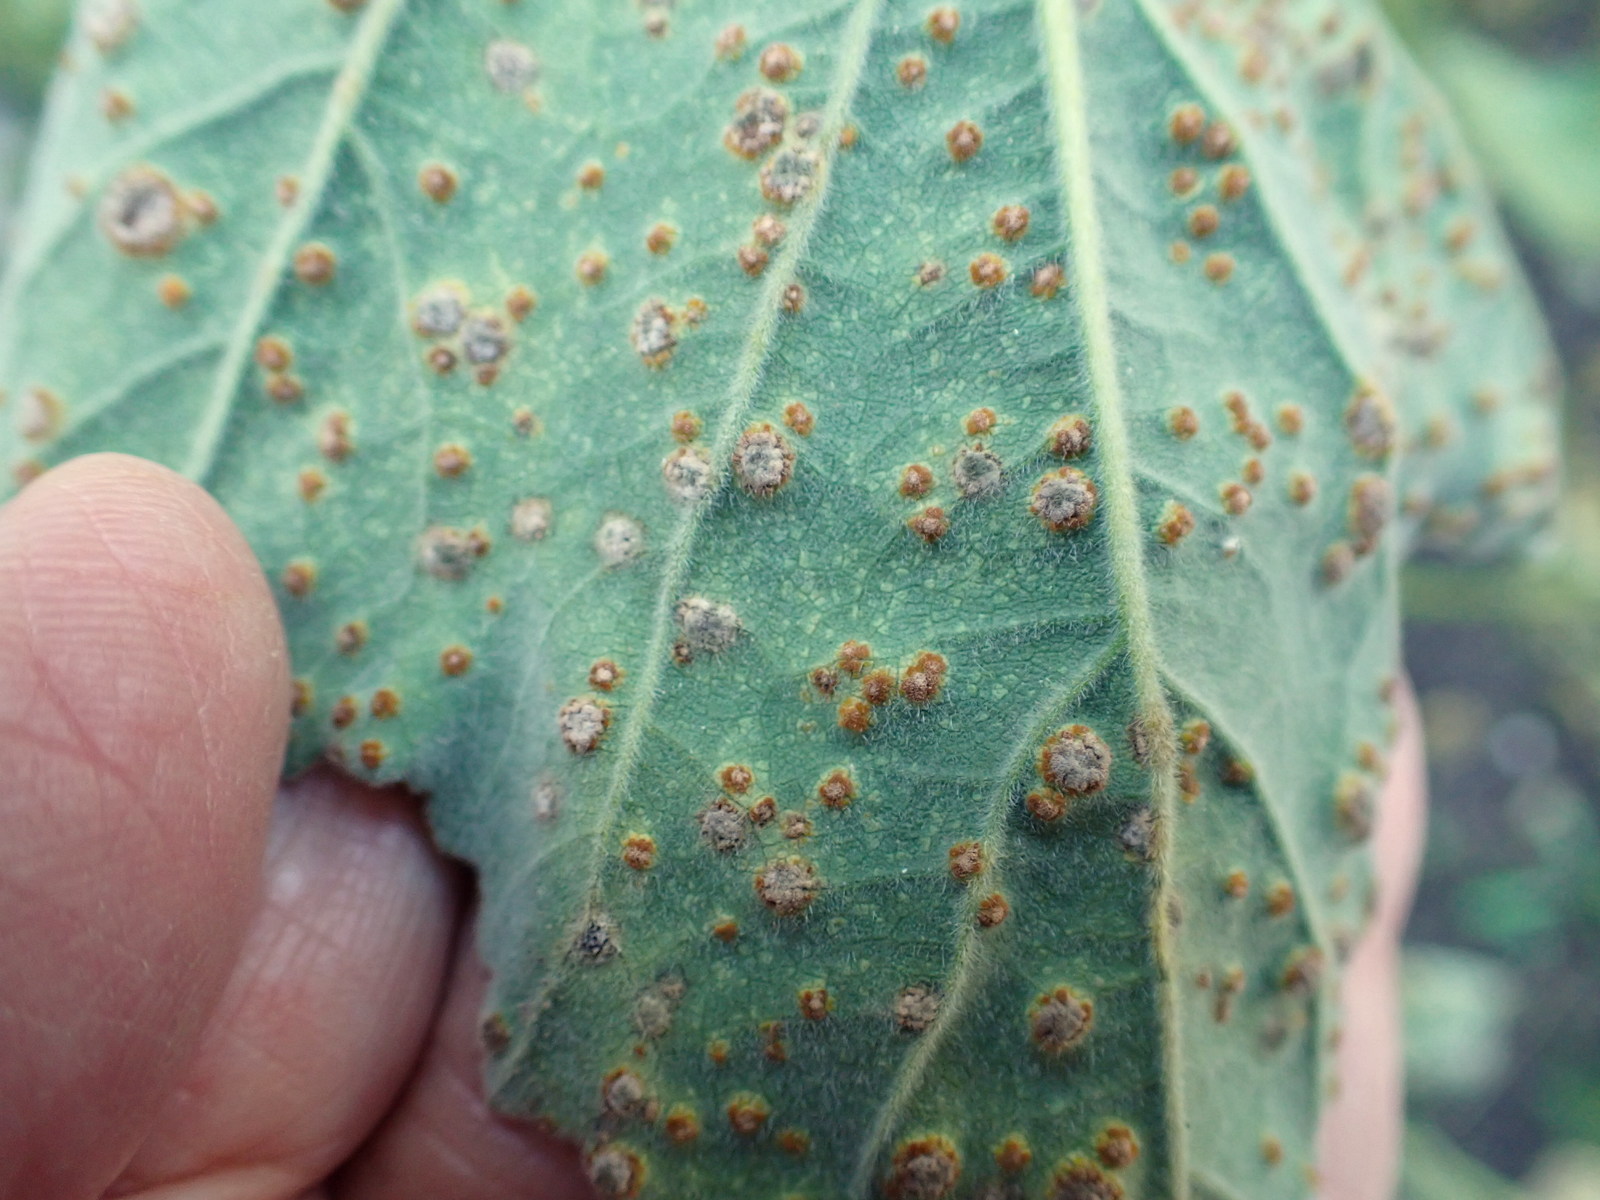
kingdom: Fungi
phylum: Basidiomycota
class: Pucciniomycetes
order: Pucciniales
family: Pucciniaceae
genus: Puccinia
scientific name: Puccinia malvacearum
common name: stokrose-tvecellerust
